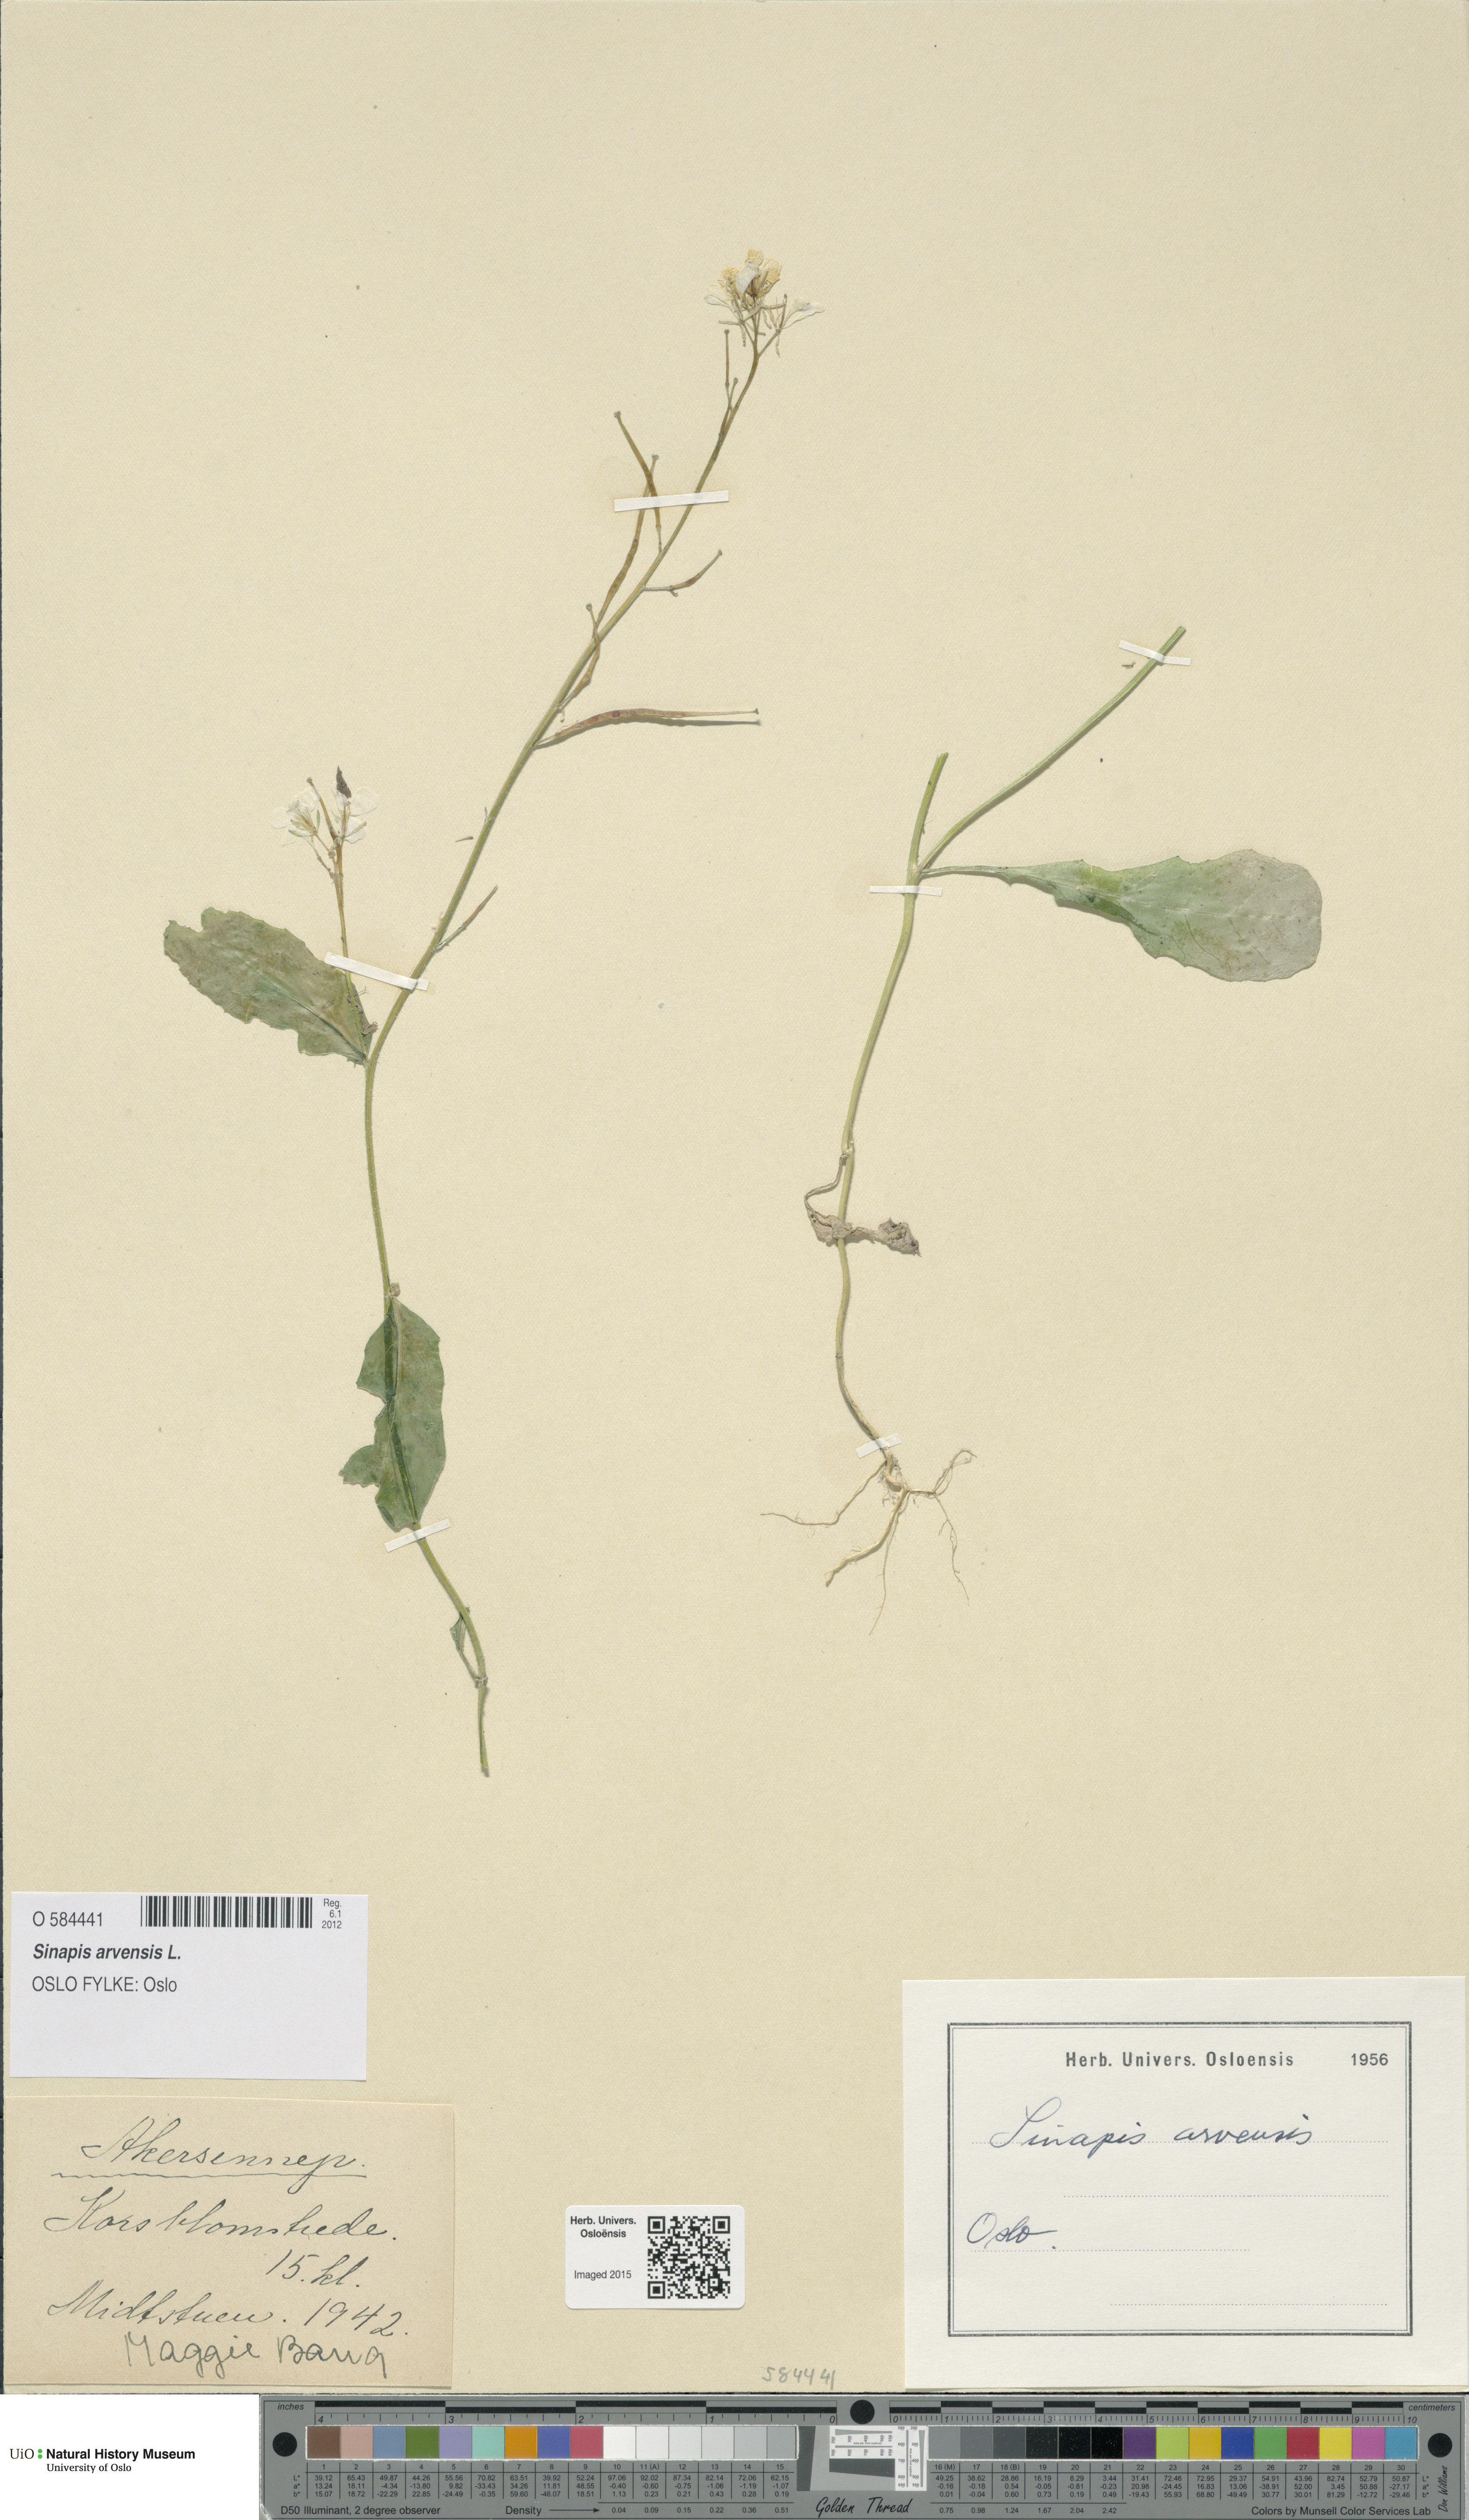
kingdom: Plantae
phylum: Tracheophyta
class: Magnoliopsida
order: Brassicales
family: Brassicaceae
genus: Sinapis
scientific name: Sinapis arvensis
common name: Charlock
